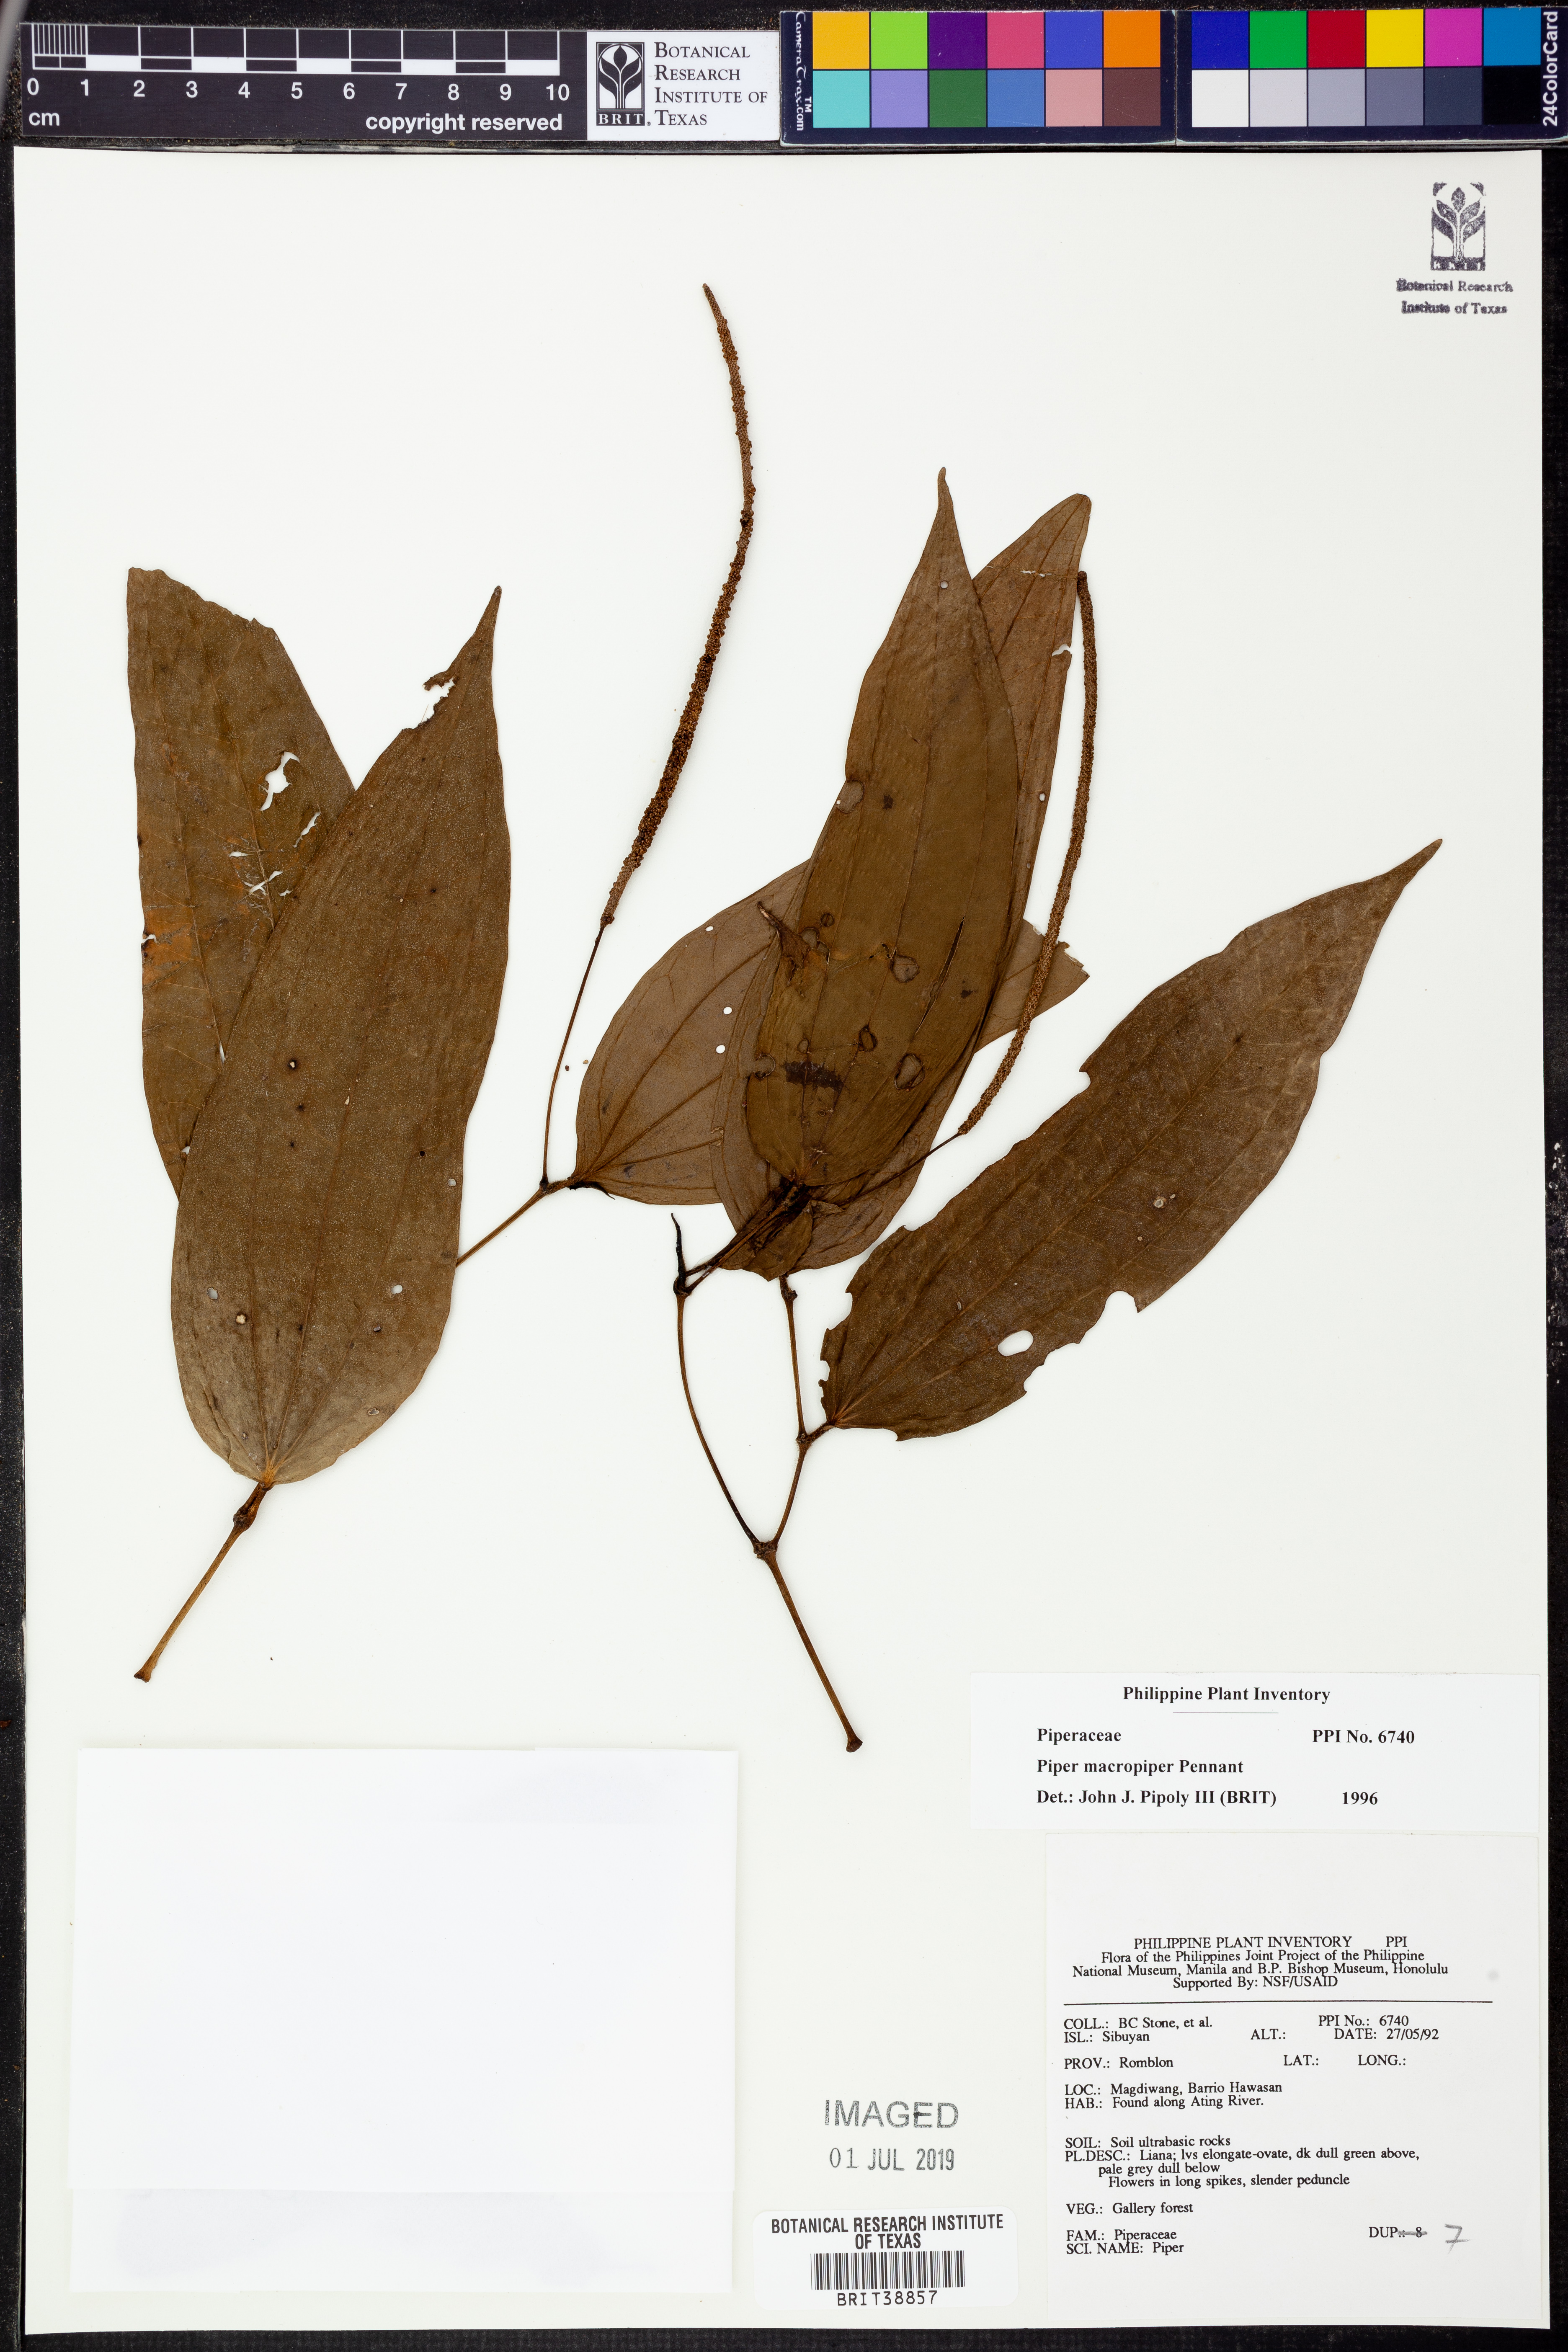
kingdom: Plantae
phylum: Tracheophyta
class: Magnoliopsida
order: Piperales
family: Piperaceae
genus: Piper
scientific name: Piper macropiper
